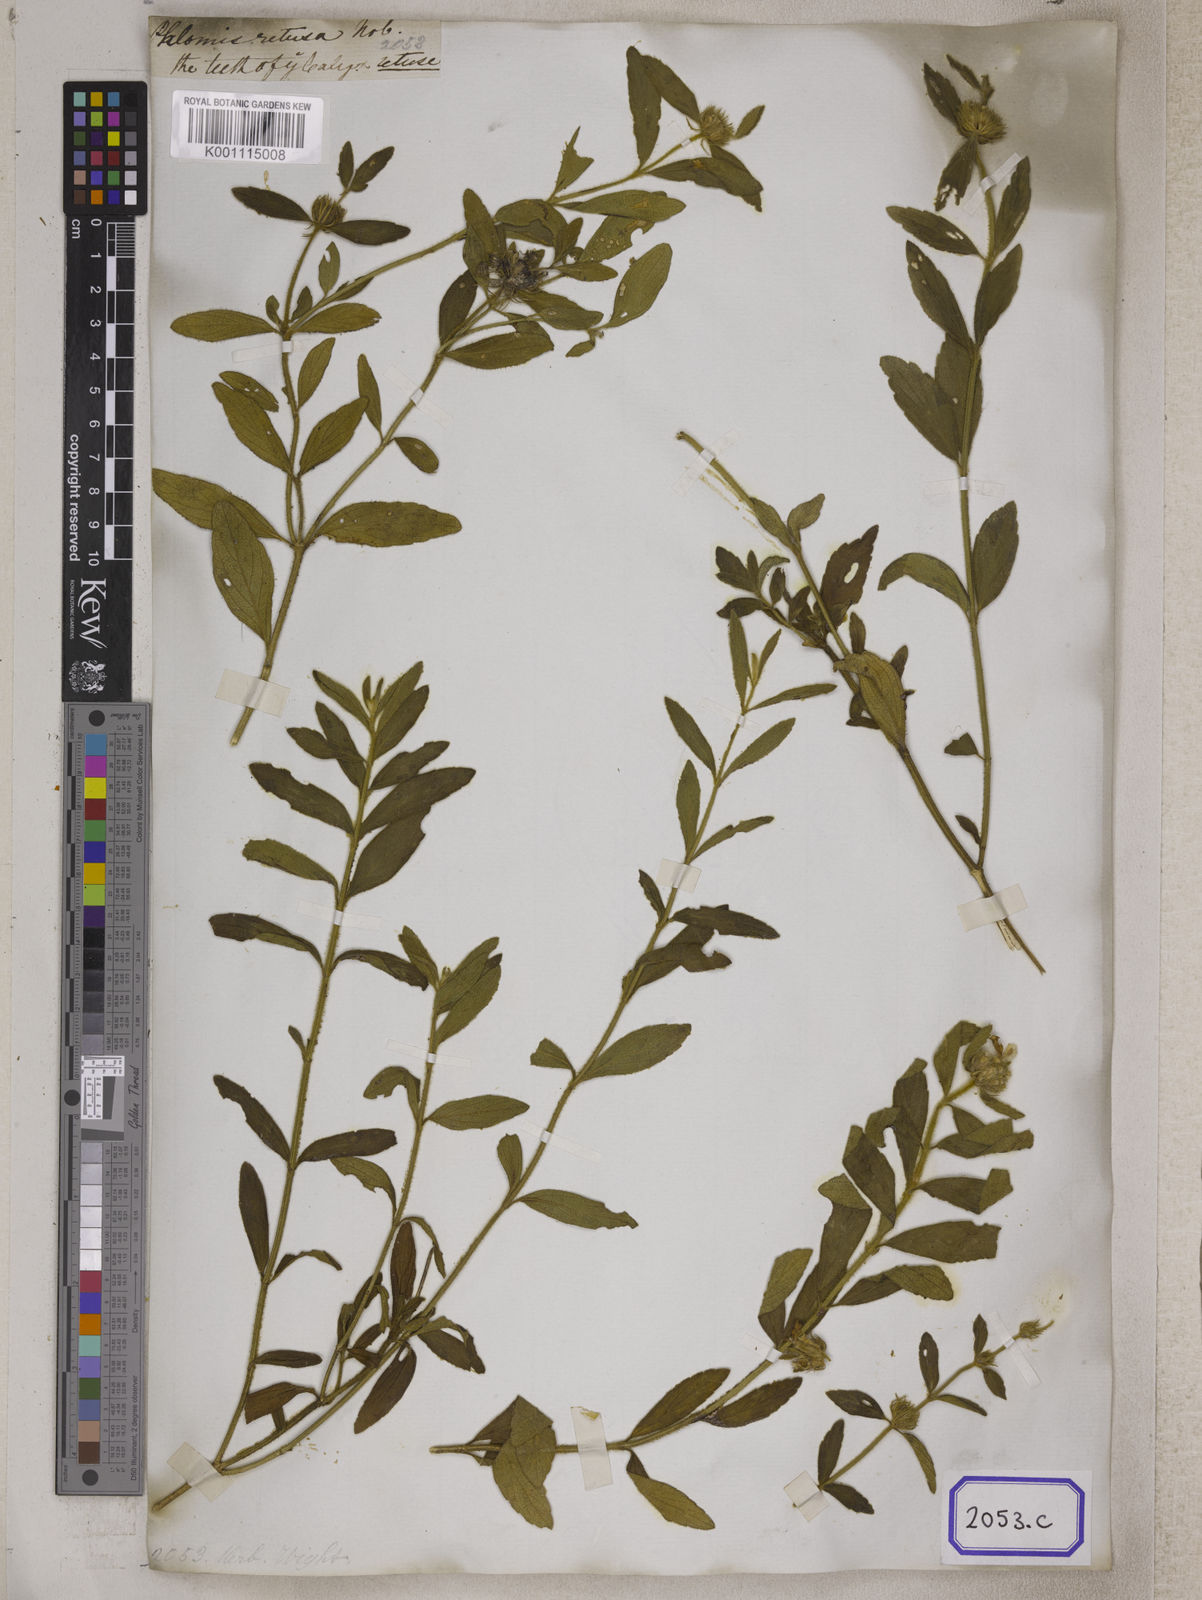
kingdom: Plantae
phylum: Tracheophyta
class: Magnoliopsida
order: Lamiales
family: Lamiaceae
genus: Leucas
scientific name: Leucas helianthemifolia
